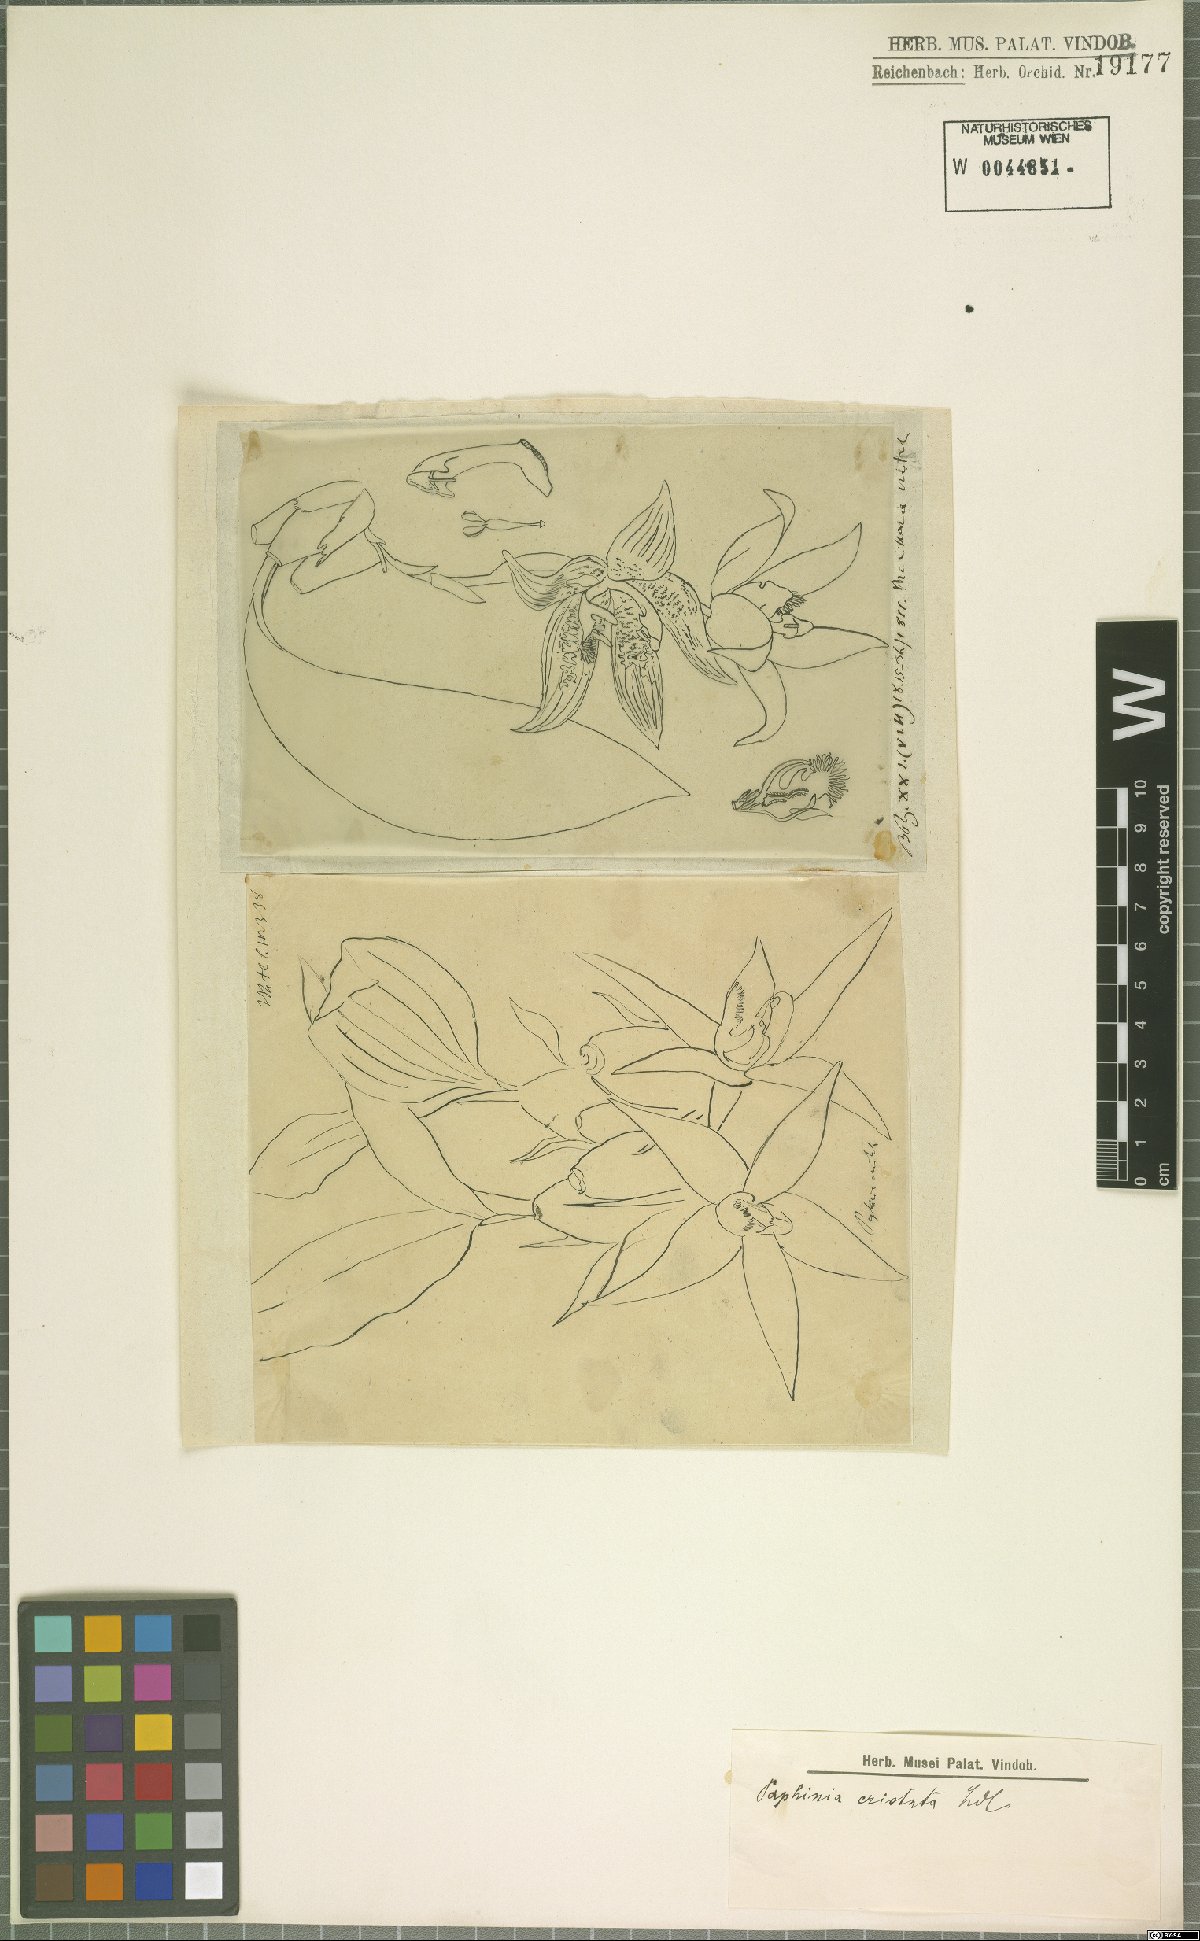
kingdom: Plantae
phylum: Tracheophyta
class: Liliopsida
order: Asparagales
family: Orchidaceae
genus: Paphinia
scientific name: Paphinia cristata
